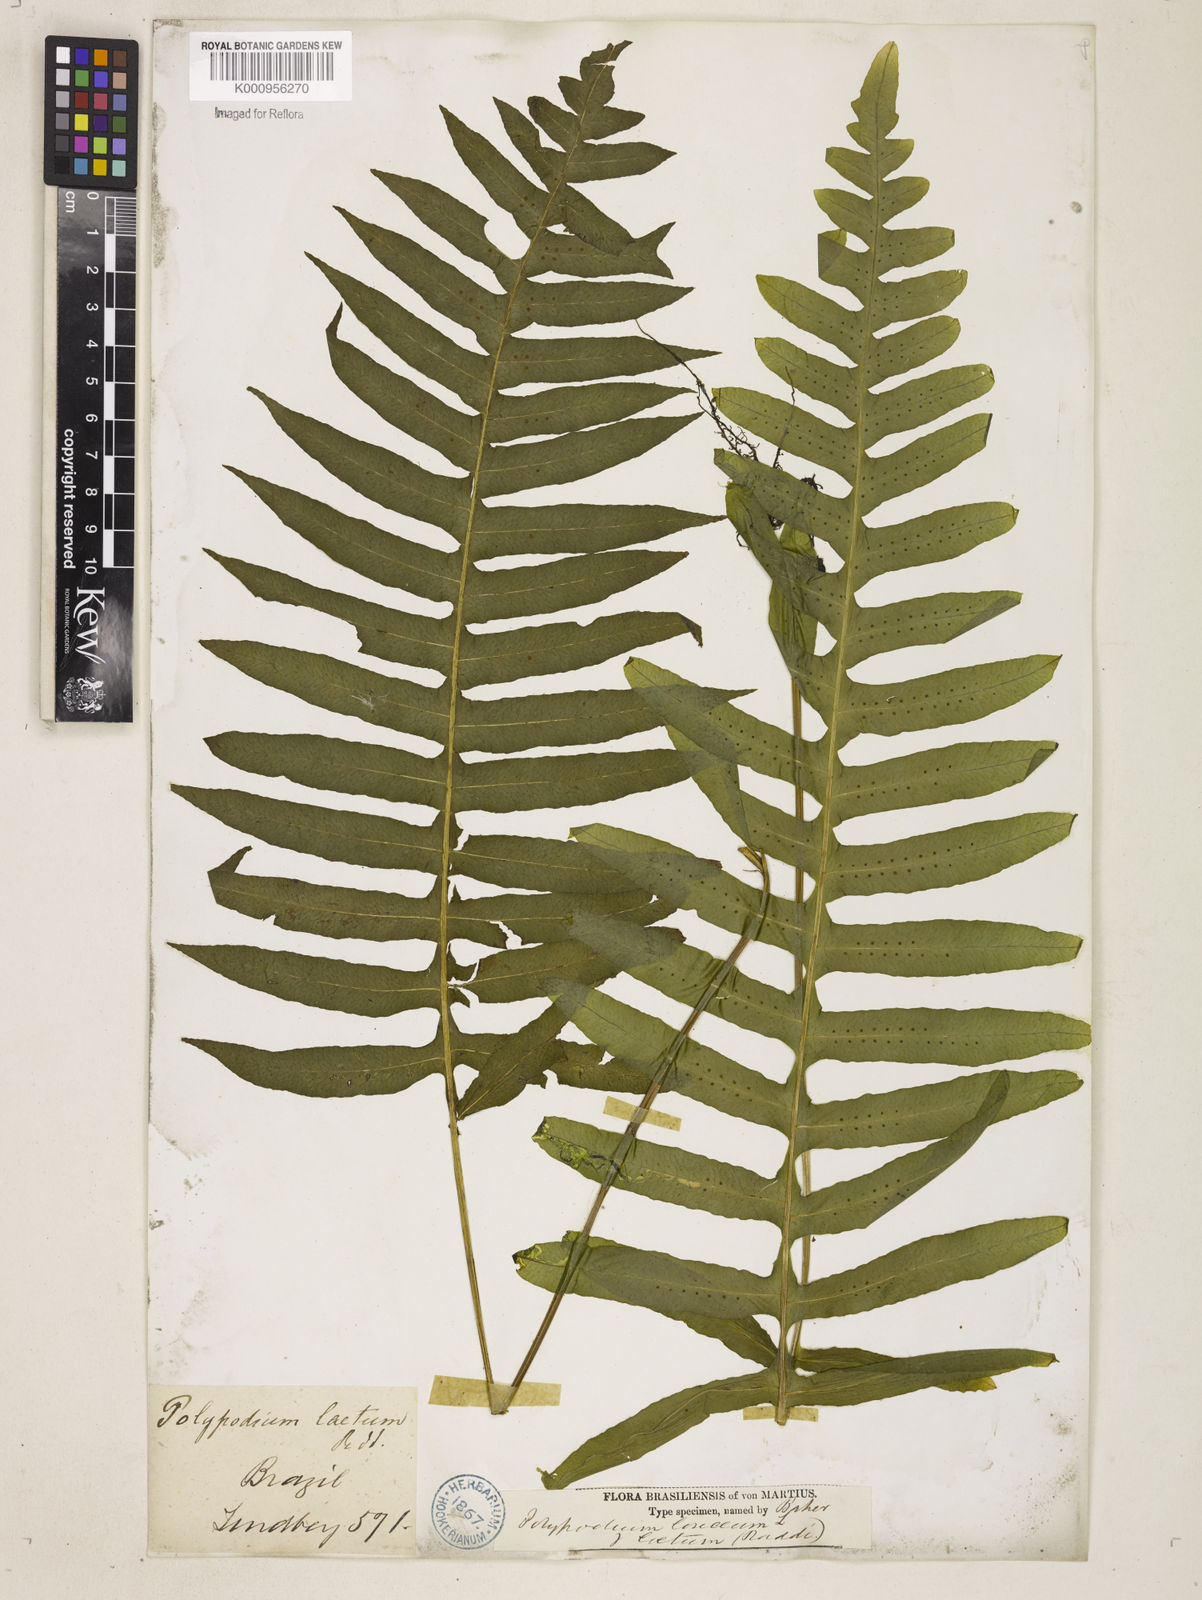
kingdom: Plantae
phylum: Tracheophyta
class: Polypodiopsida
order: Polypodiales
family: Polypodiaceae
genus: Serpocaulon
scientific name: Serpocaulon loriceum
